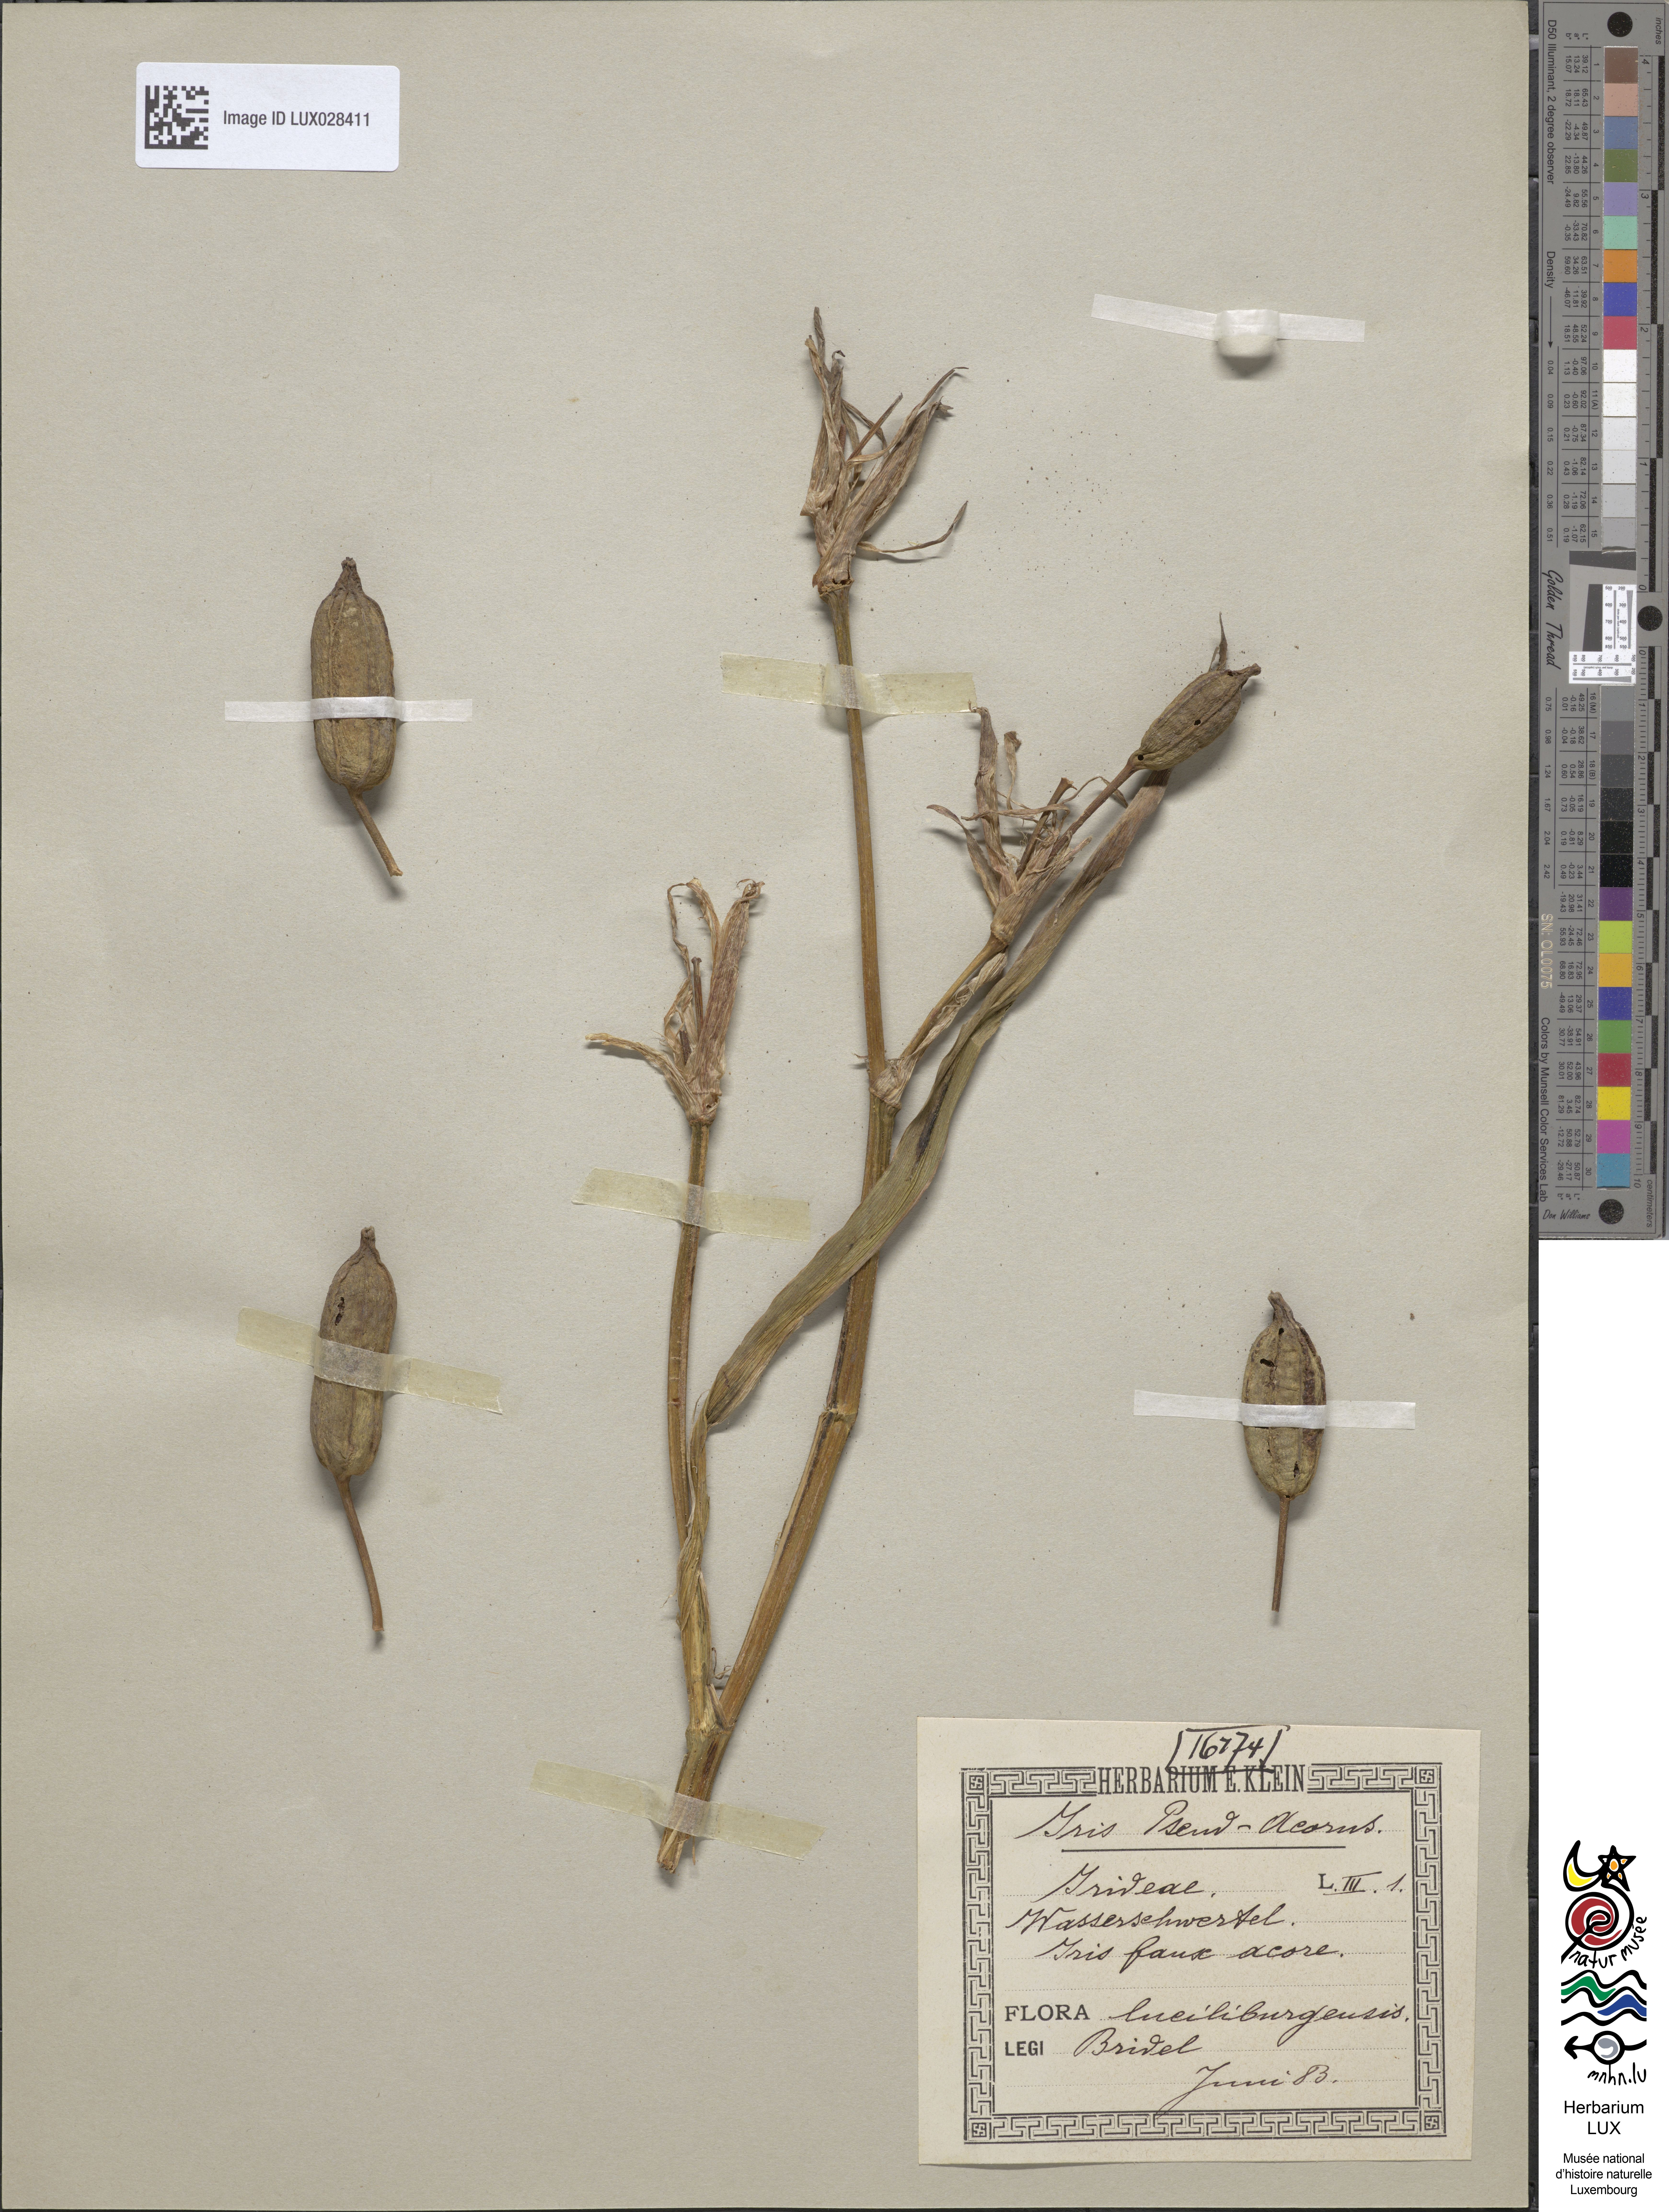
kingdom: Plantae
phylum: Tracheophyta
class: Liliopsida
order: Asparagales
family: Iridaceae
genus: Iris
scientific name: Iris pseudacorus
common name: Yellow flag
